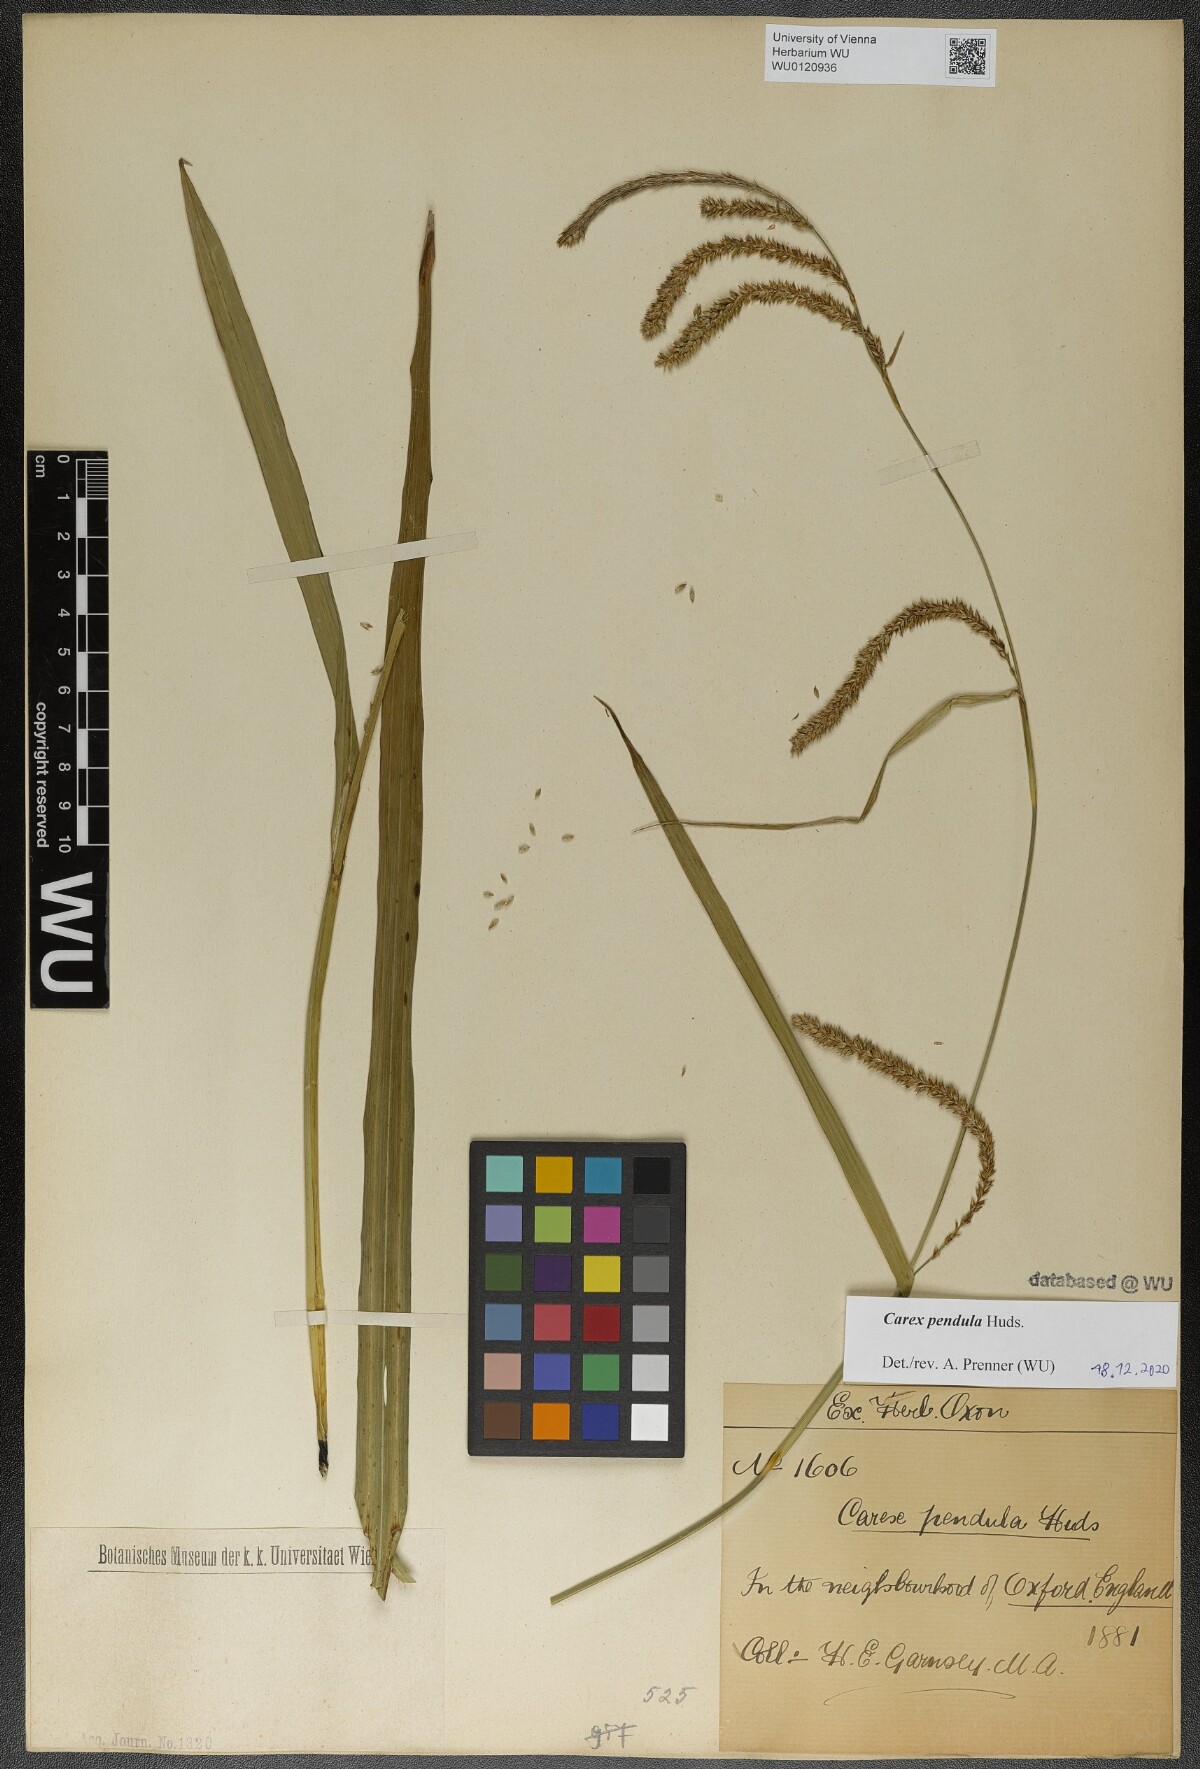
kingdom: Plantae
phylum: Tracheophyta
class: Liliopsida
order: Poales
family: Cyperaceae
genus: Carex
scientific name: Carex pendula
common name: Pendulous sedge
